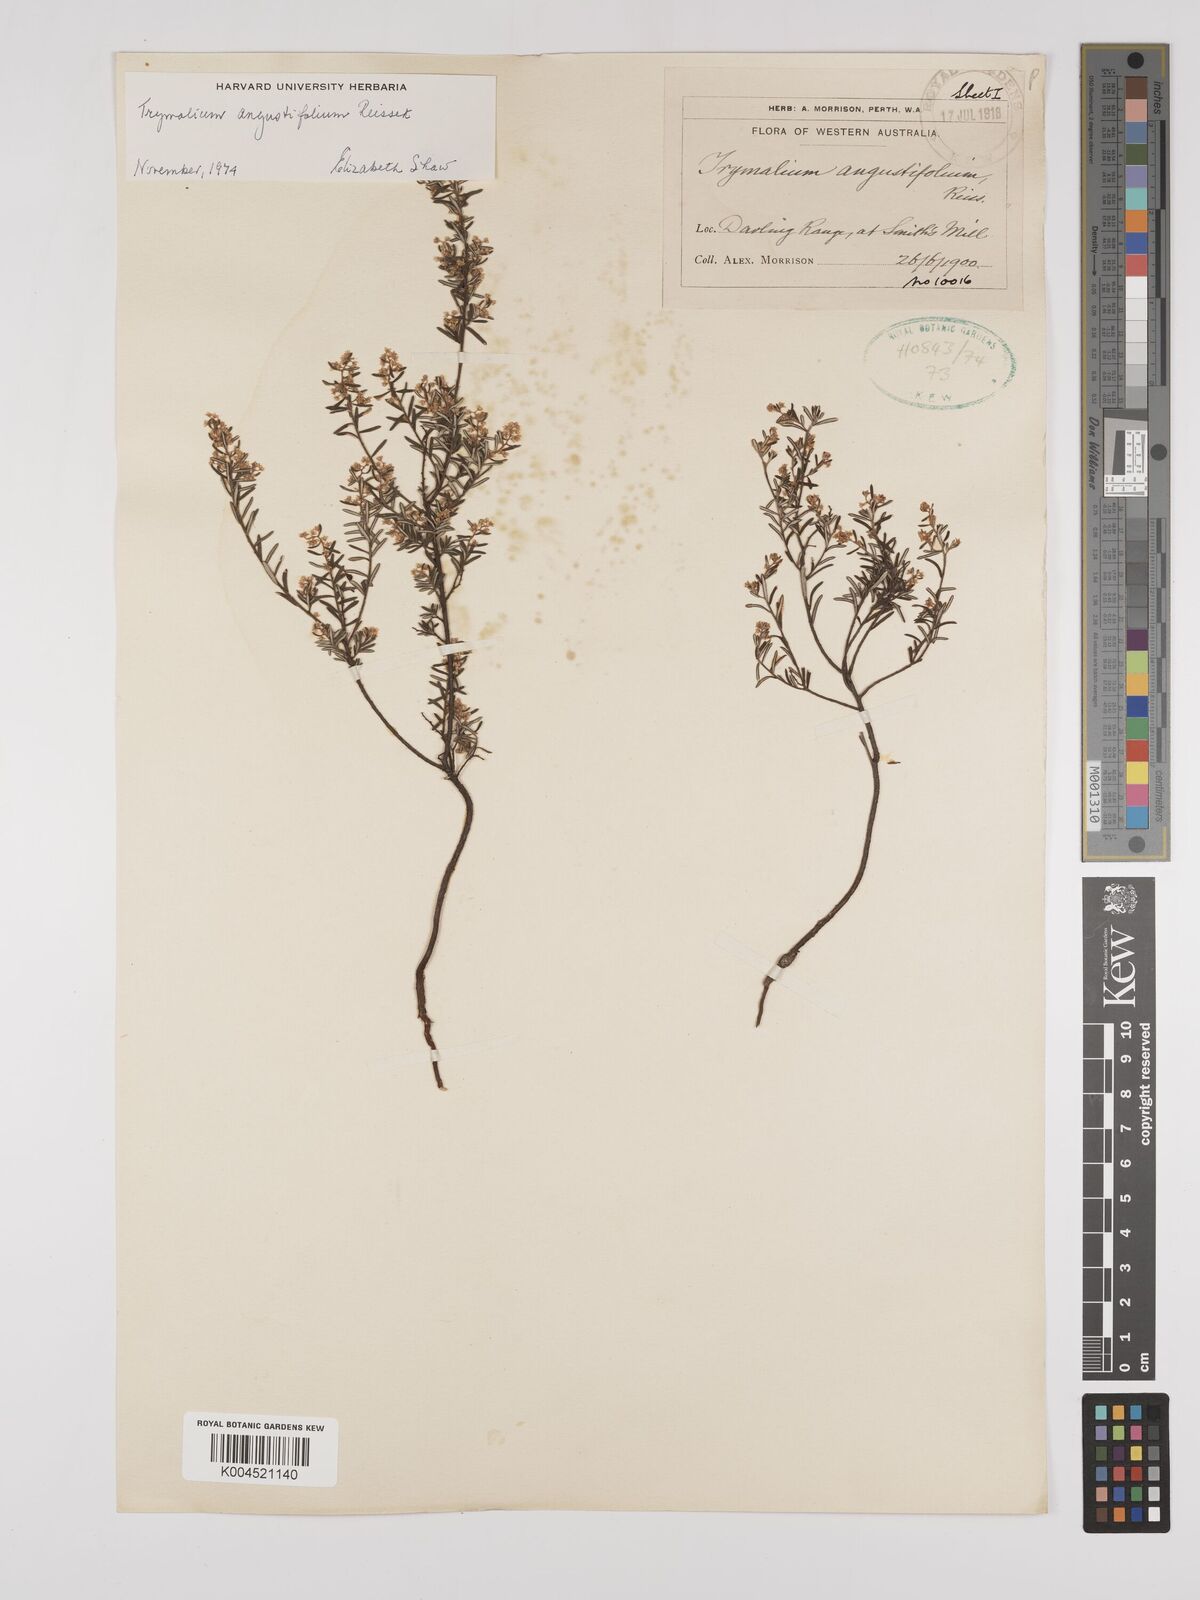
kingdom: Plantae
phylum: Tracheophyta
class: Magnoliopsida
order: Rosales
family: Rhamnaceae
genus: Trymalium
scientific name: Trymalium angustifolium
